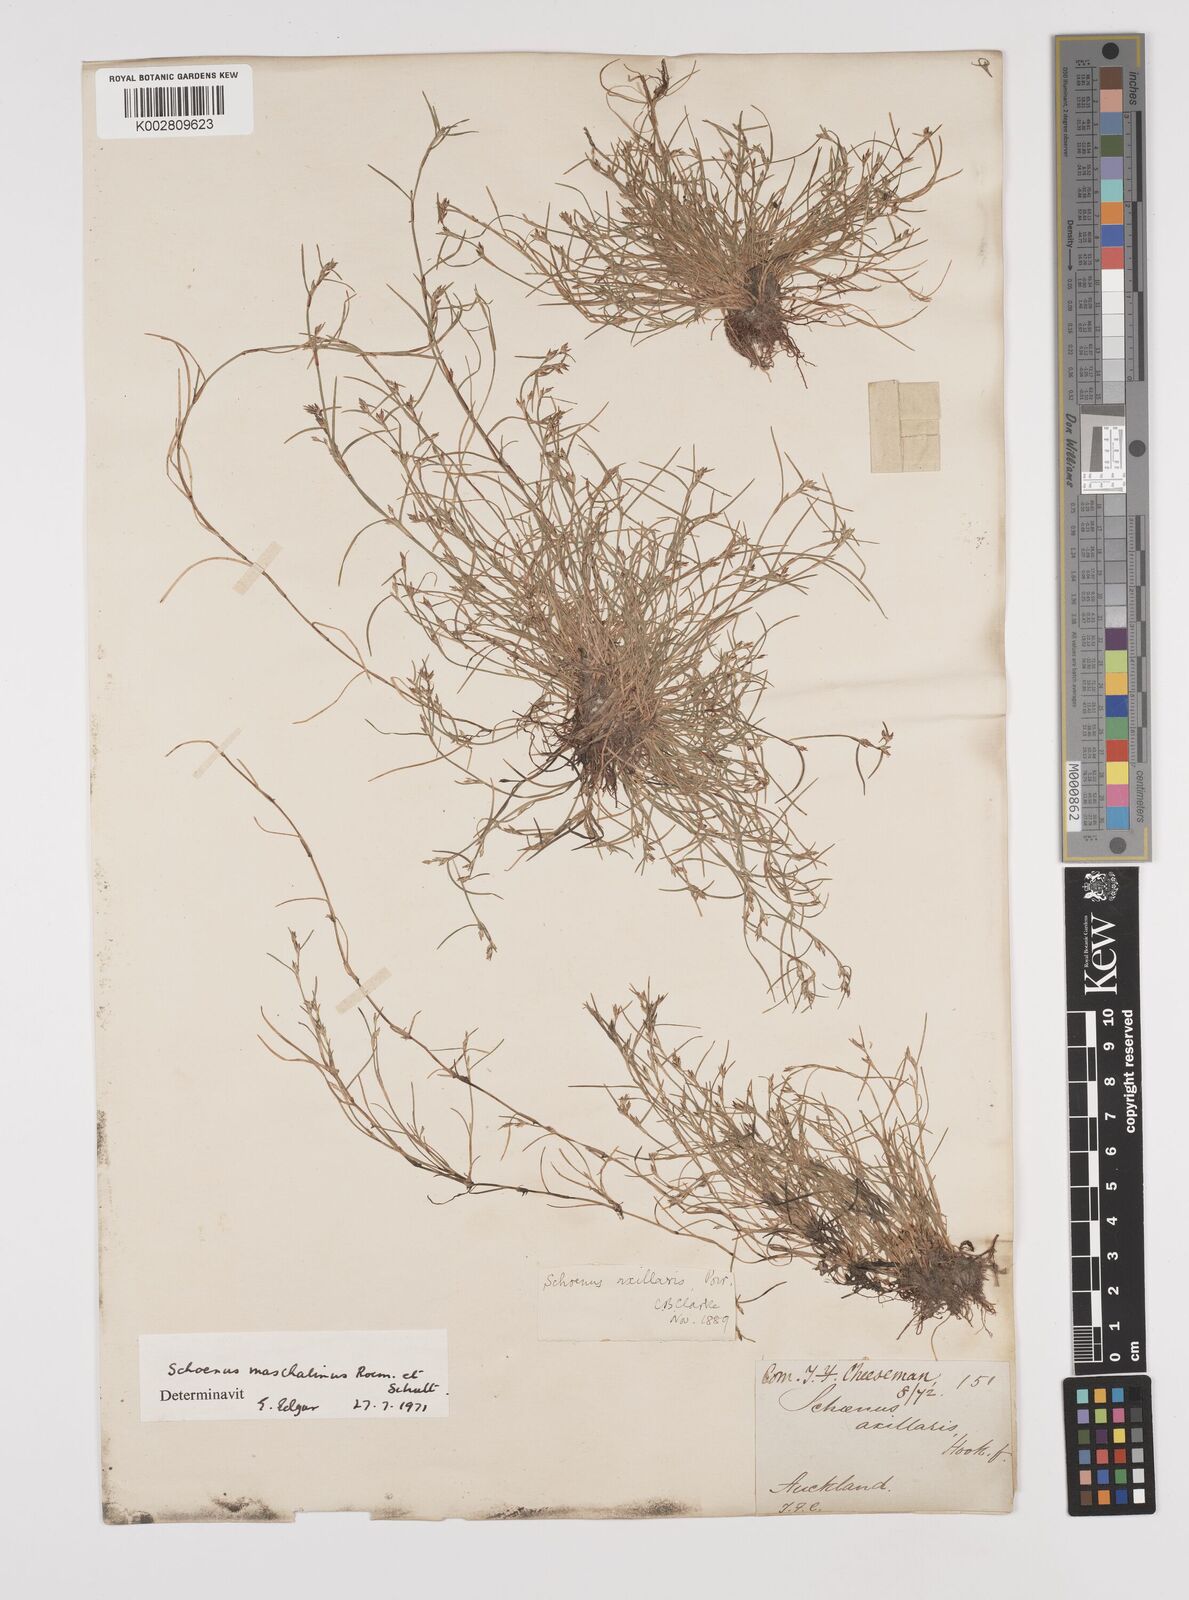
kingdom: Plantae
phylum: Tracheophyta
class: Liliopsida
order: Poales
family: Cyperaceae
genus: Schoenus
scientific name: Schoenus maschalinus
